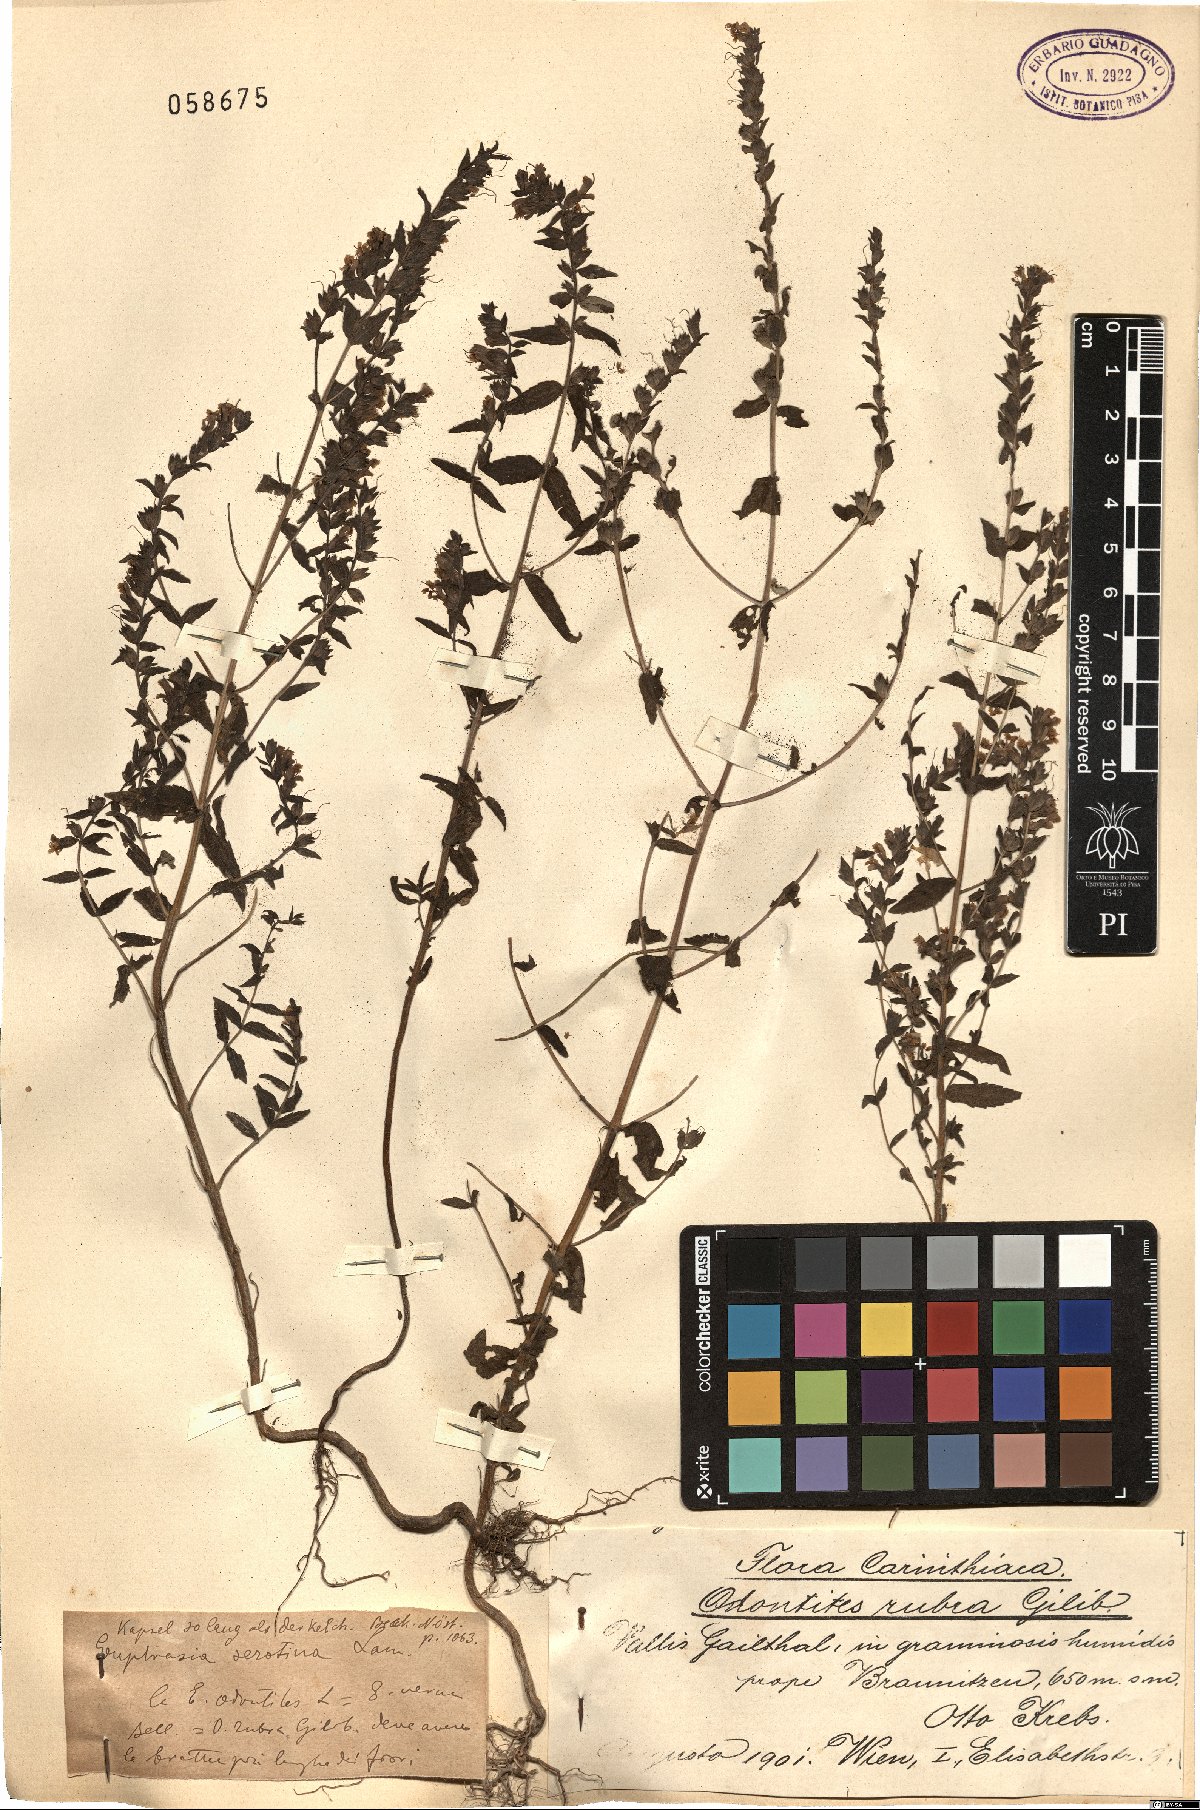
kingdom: Plantae
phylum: Tracheophyta
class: Magnoliopsida
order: Lamiales
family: Orobanchaceae
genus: Odontites
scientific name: Odontites vulgaris
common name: Broomrape
